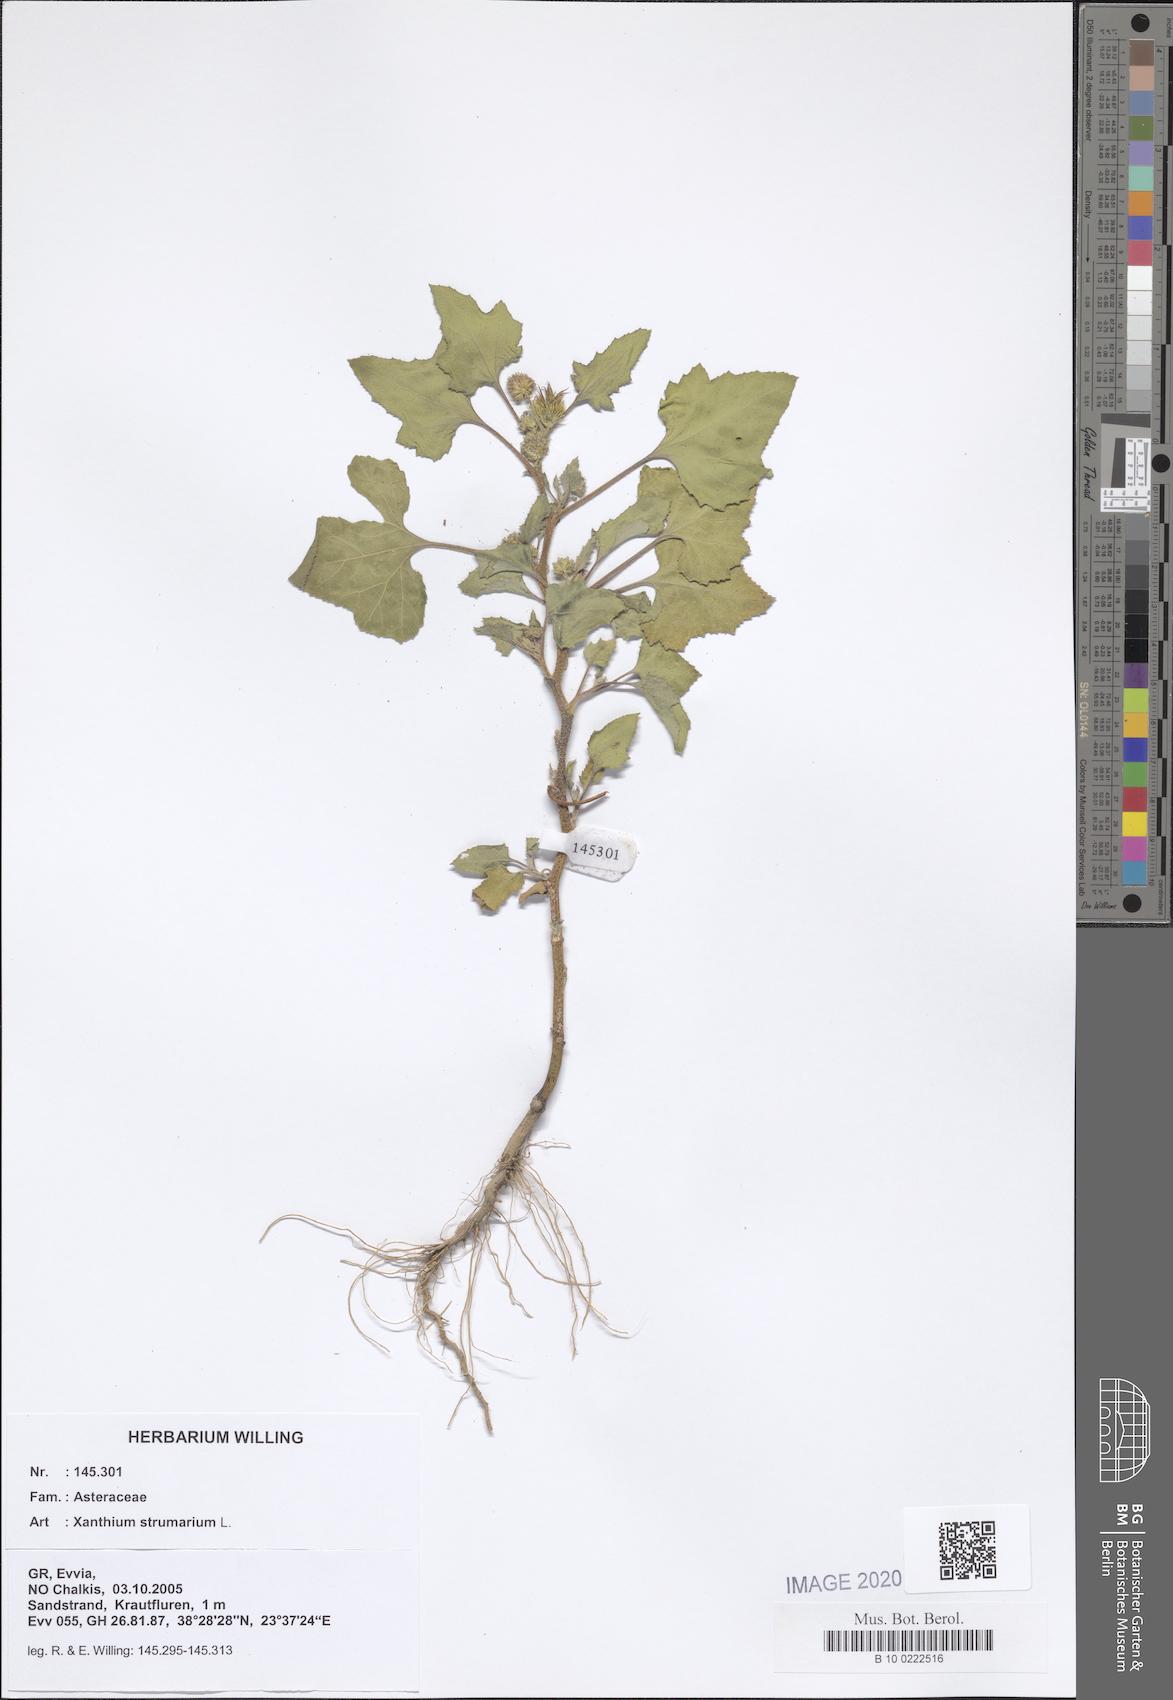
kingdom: Plantae
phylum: Tracheophyta
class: Magnoliopsida
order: Asterales
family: Asteraceae
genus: Xanthium
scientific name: Xanthium strumarium
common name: Rough cocklebur
